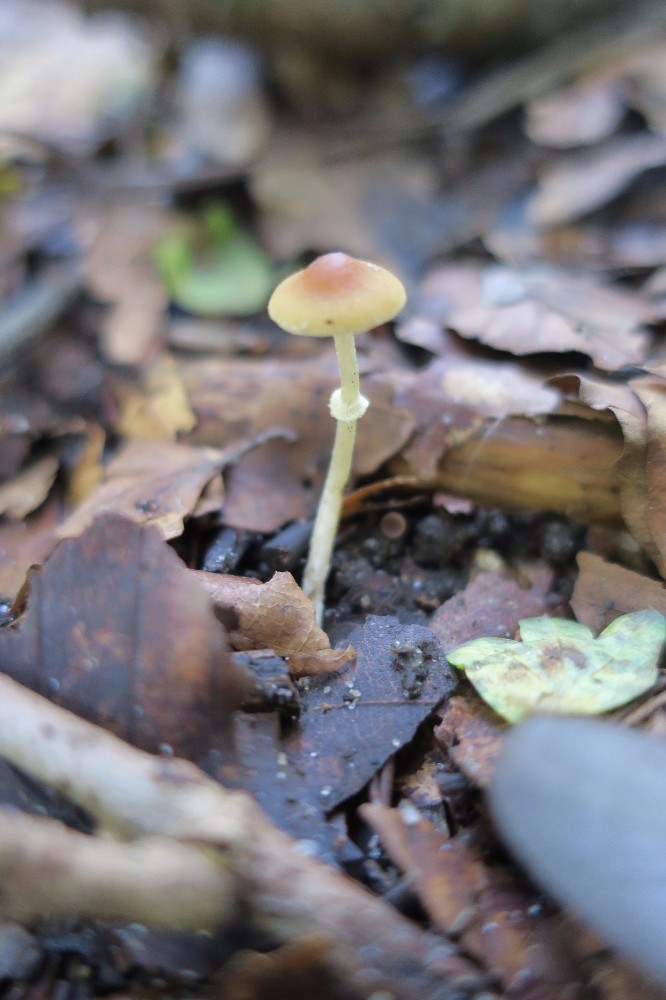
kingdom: Fungi
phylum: Basidiomycota
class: Agaricomycetes
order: Agaricales
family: Bolbitiaceae
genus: Pholiotina
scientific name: Pholiotina
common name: dansehat
